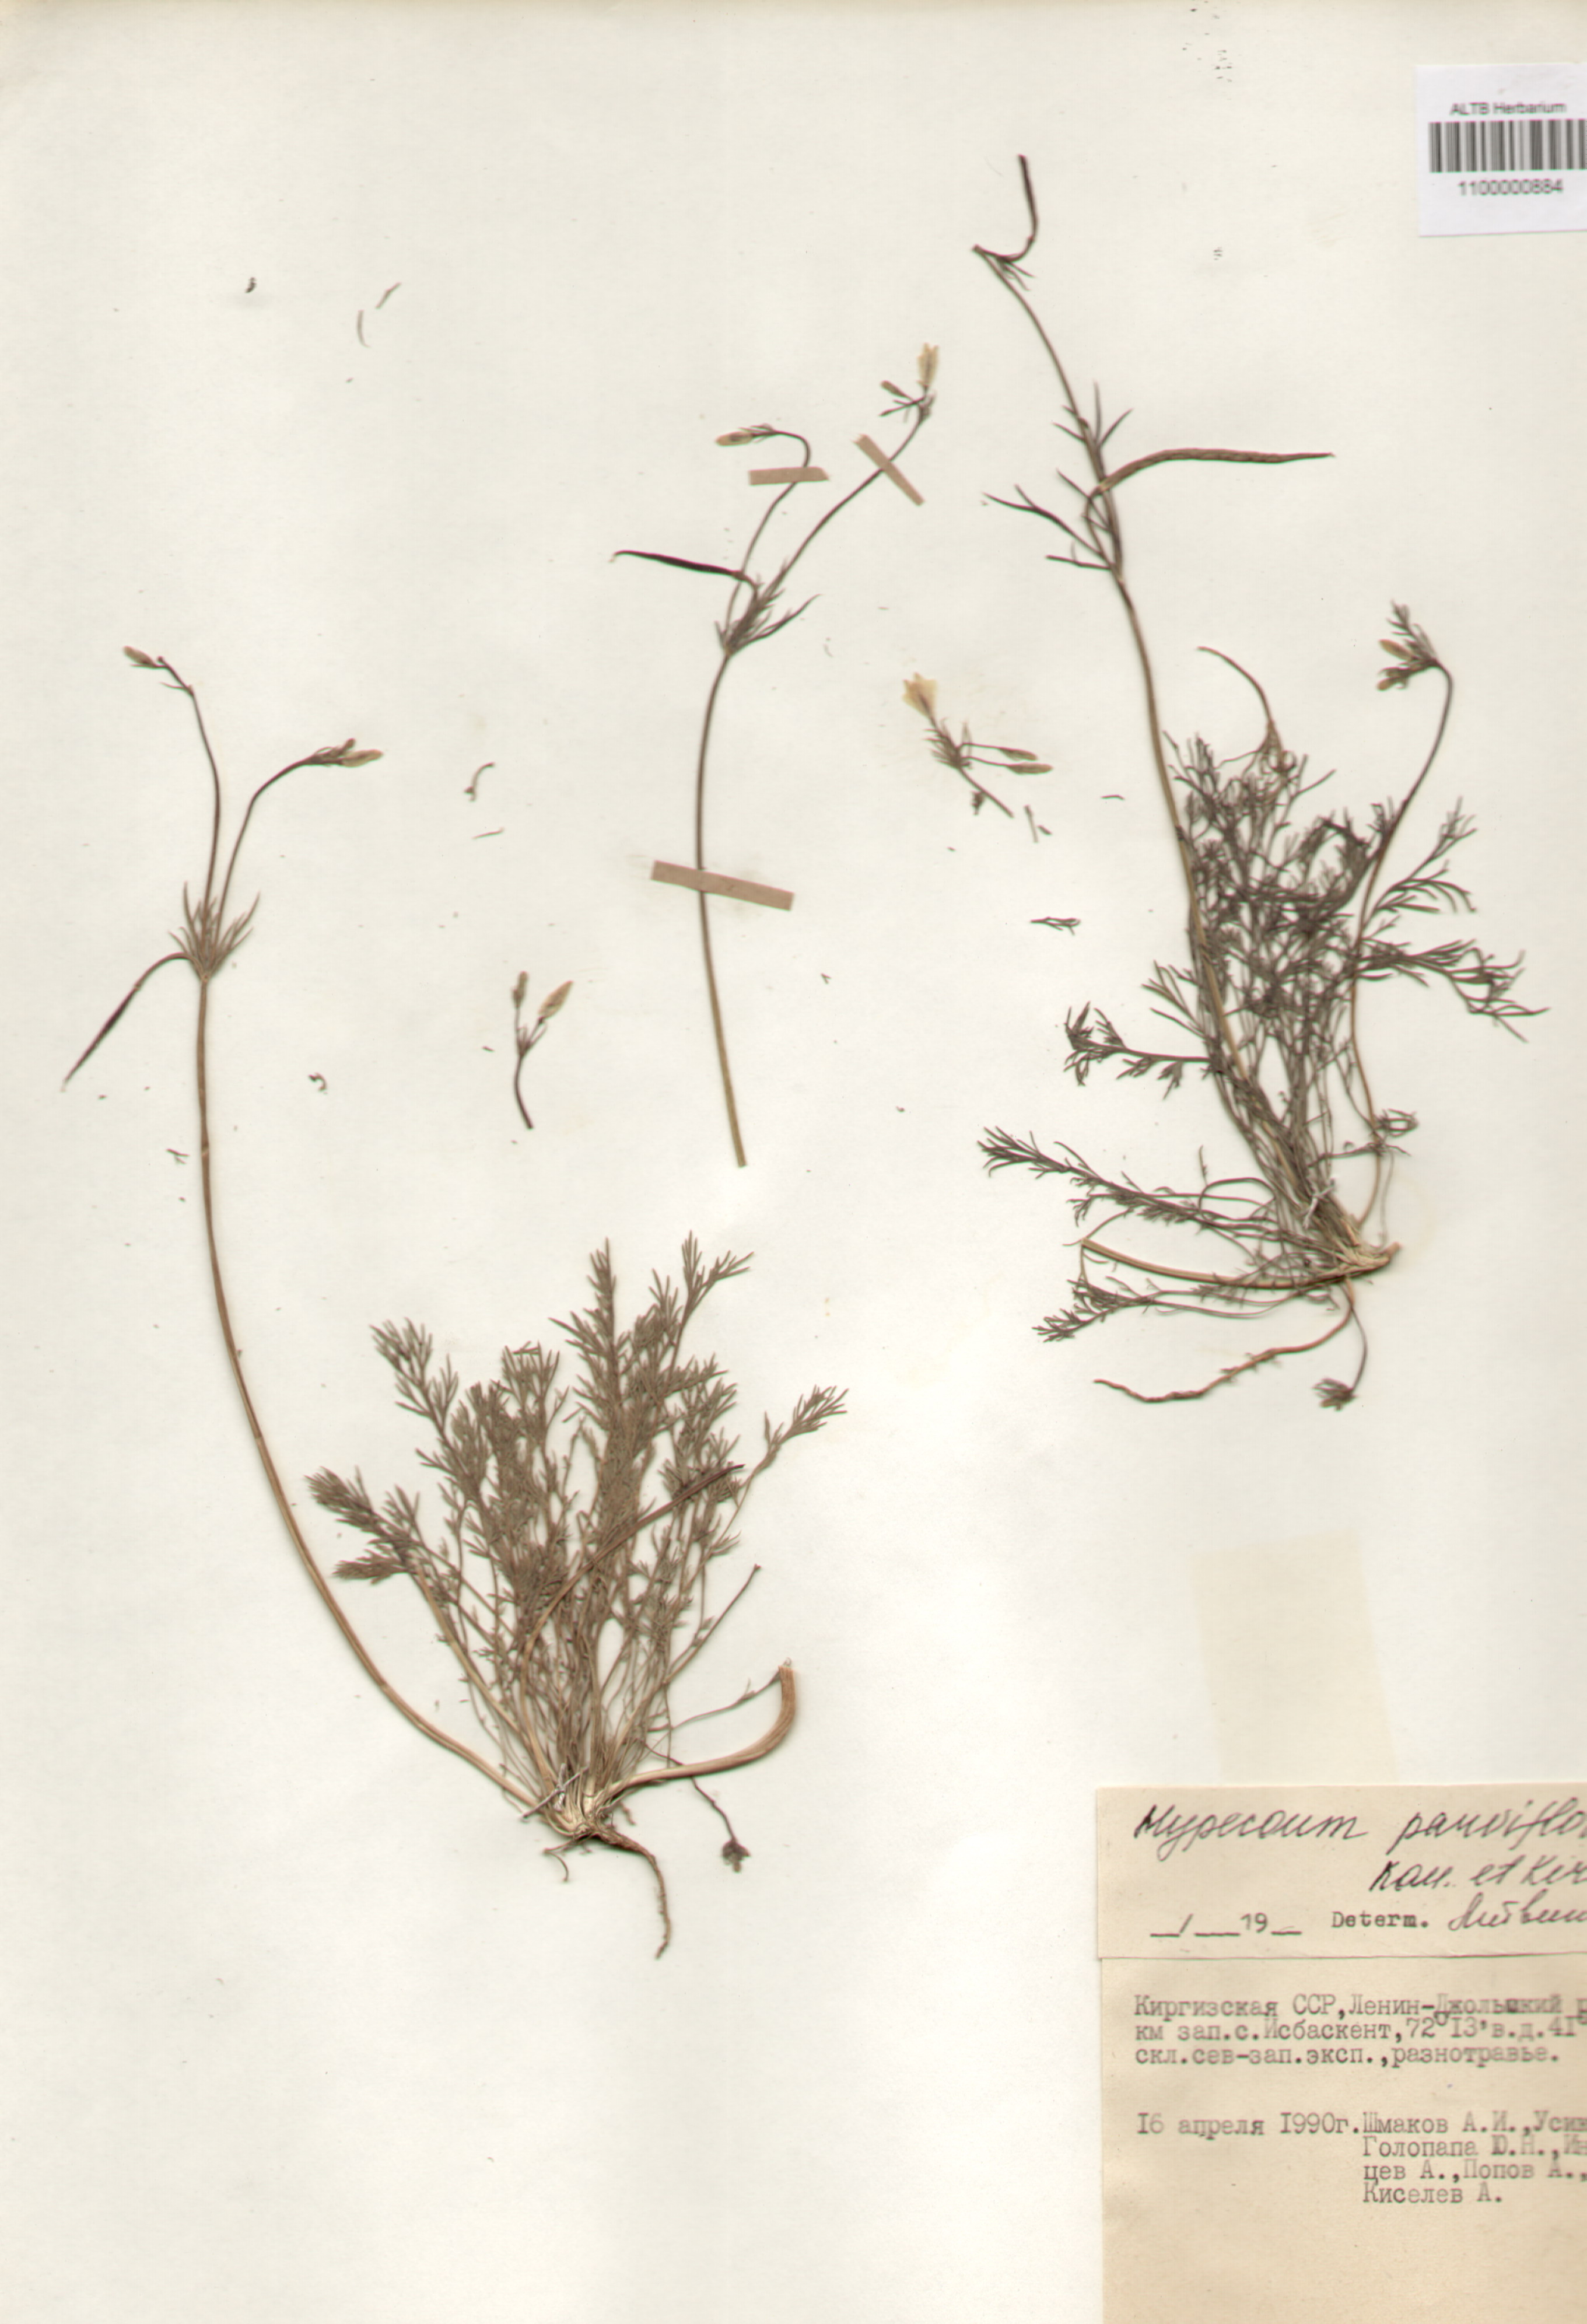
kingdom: Plantae
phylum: Tracheophyta
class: Magnoliopsida
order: Ranunculales
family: Papaveraceae
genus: Hypecoum
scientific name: Hypecoum parviflorum
